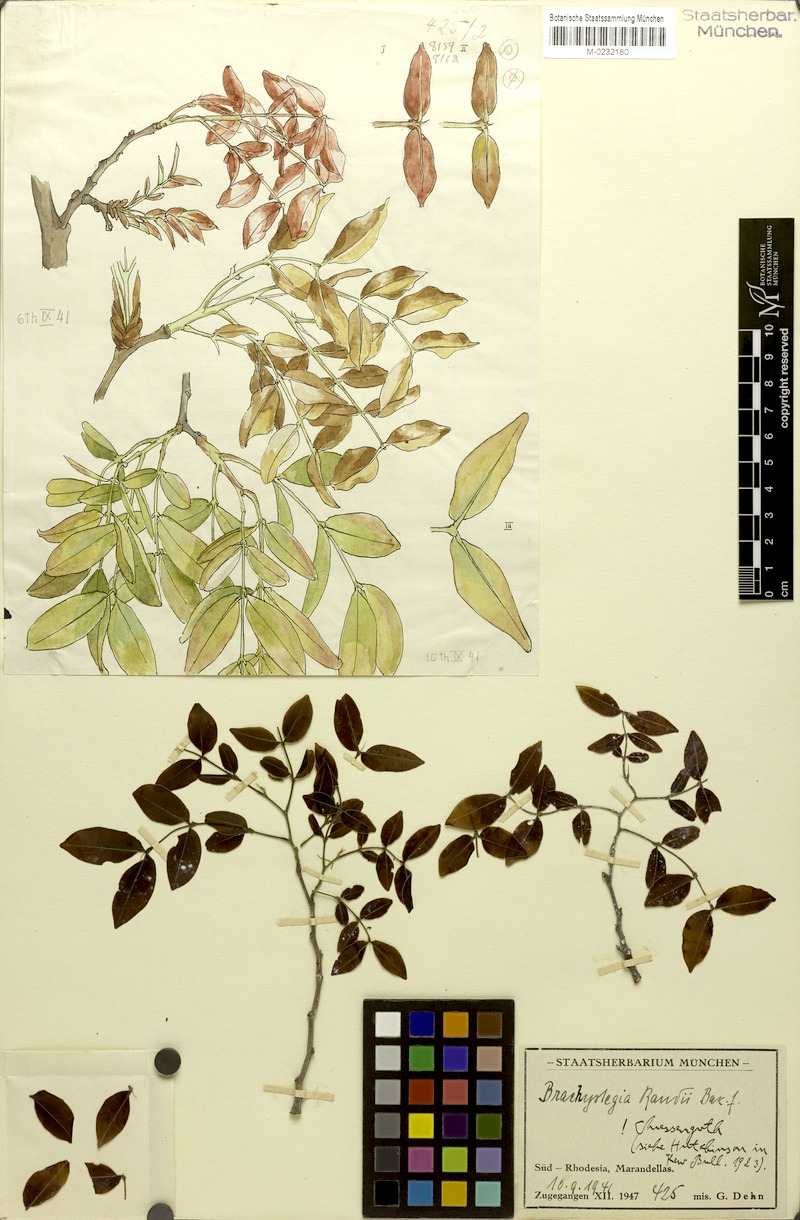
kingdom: Plantae
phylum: Tracheophyta
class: Magnoliopsida
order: Fabales
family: Fabaceae
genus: Brachystegia
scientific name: Brachystegia spiciformis
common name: Zebrawood
